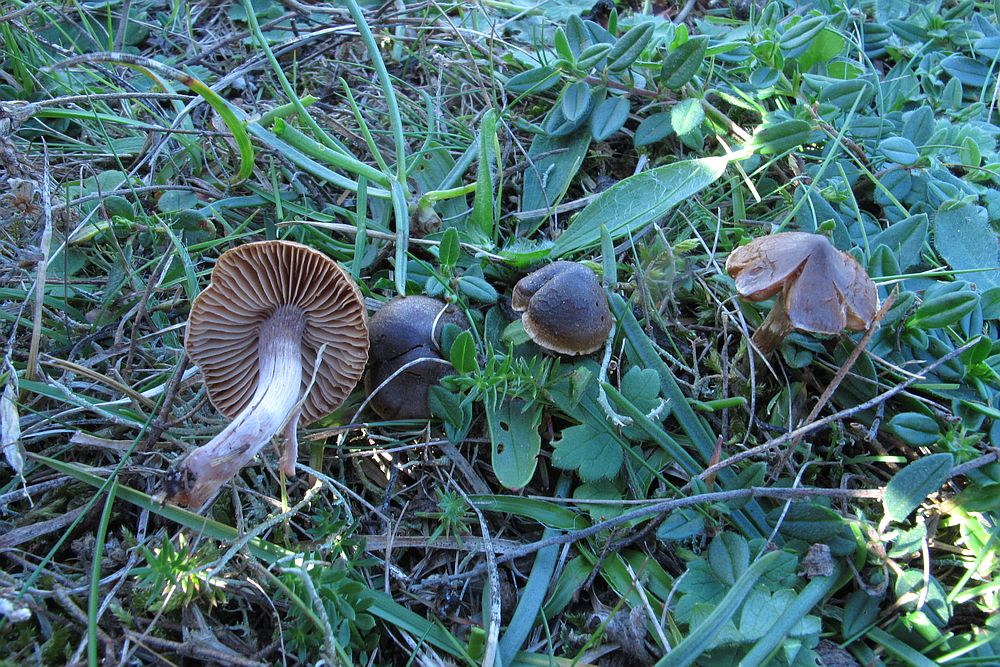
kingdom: Fungi
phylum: Basidiomycota
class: Agaricomycetes
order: Agaricales
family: Cortinariaceae
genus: Cortinarius
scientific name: Cortinarius
